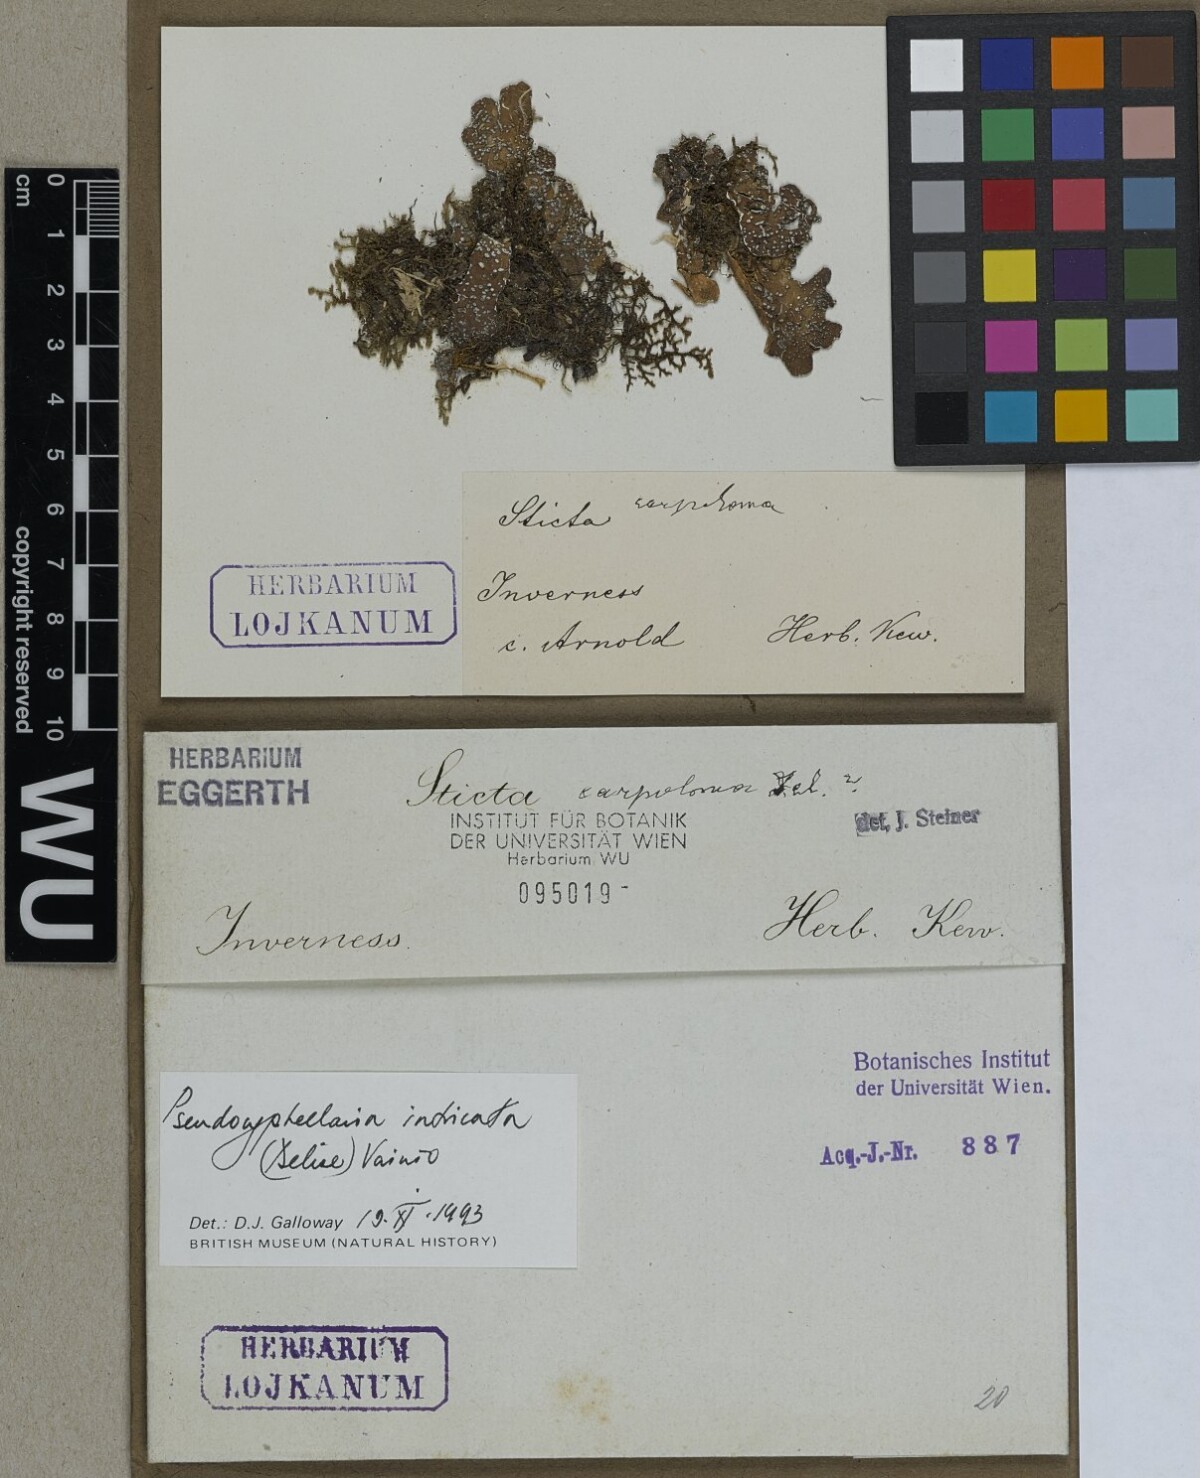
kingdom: Fungi
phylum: Ascomycota
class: Lecanoromycetes
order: Peltigerales
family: Lobariaceae
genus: Pseudocyphellaria
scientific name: Pseudocyphellaria intricata
